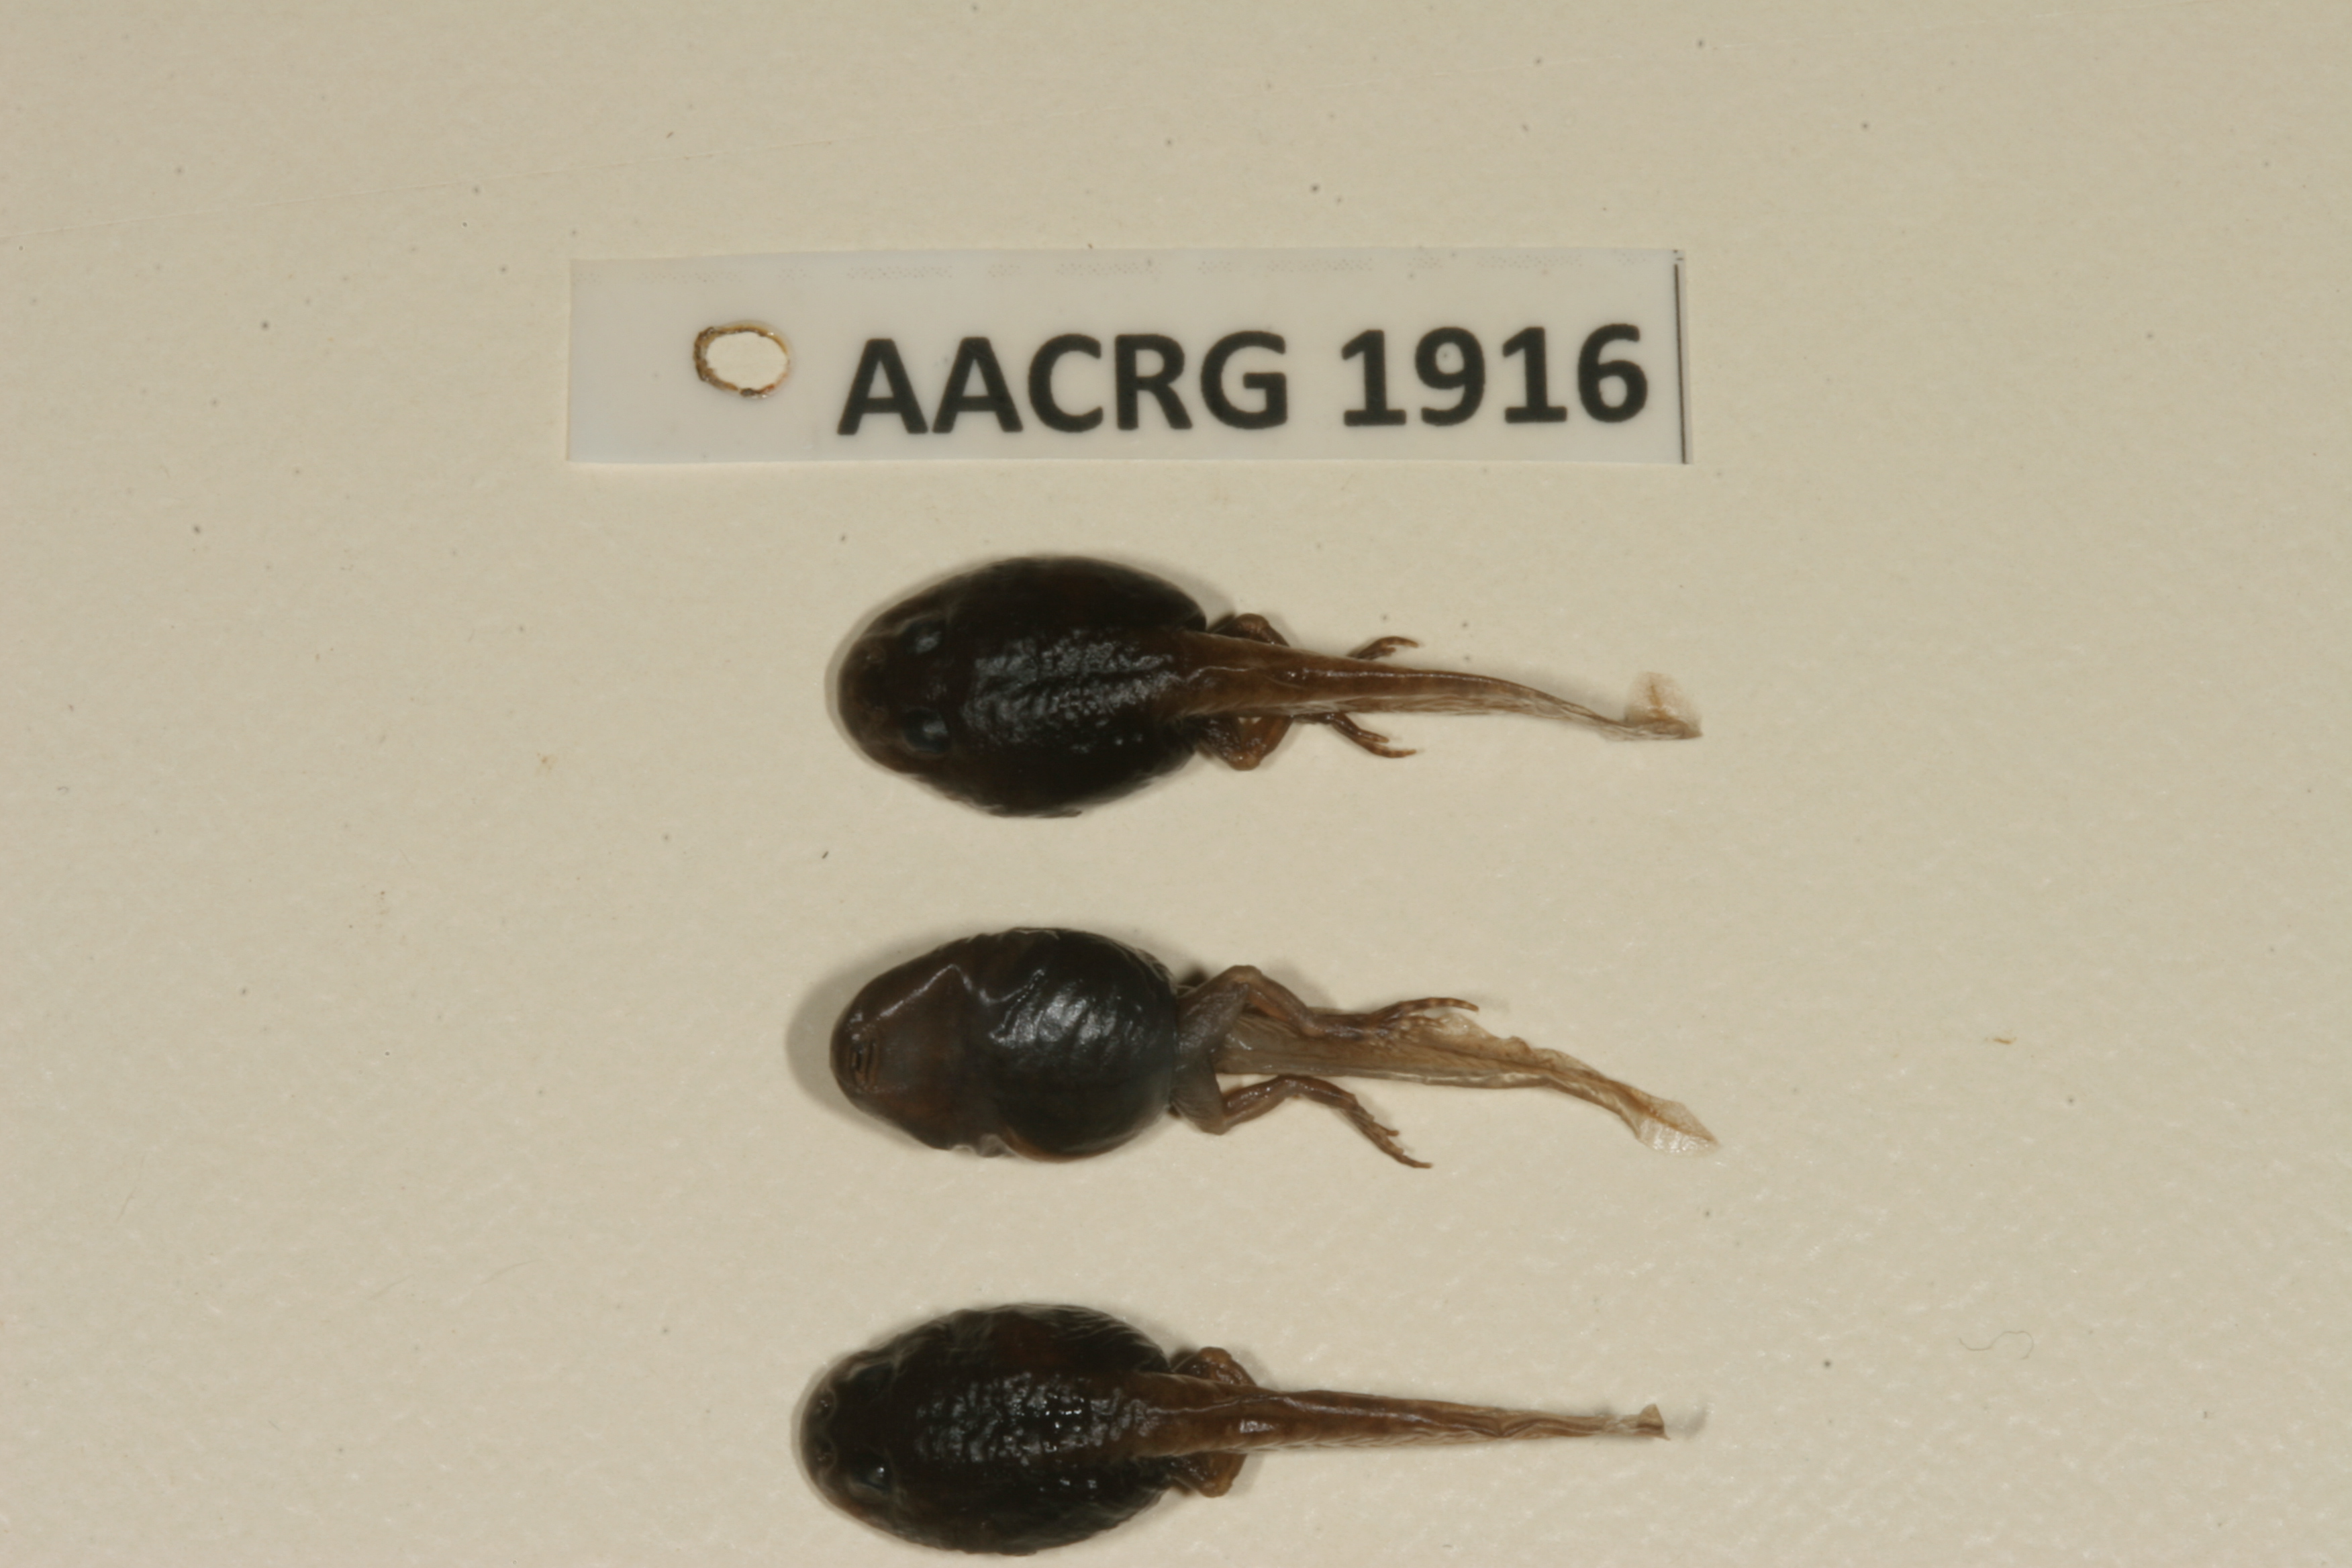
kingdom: Animalia
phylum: Chordata
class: Amphibia
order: Anura
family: Bufonidae
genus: Sclerophrys
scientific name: Sclerophrys poweri
